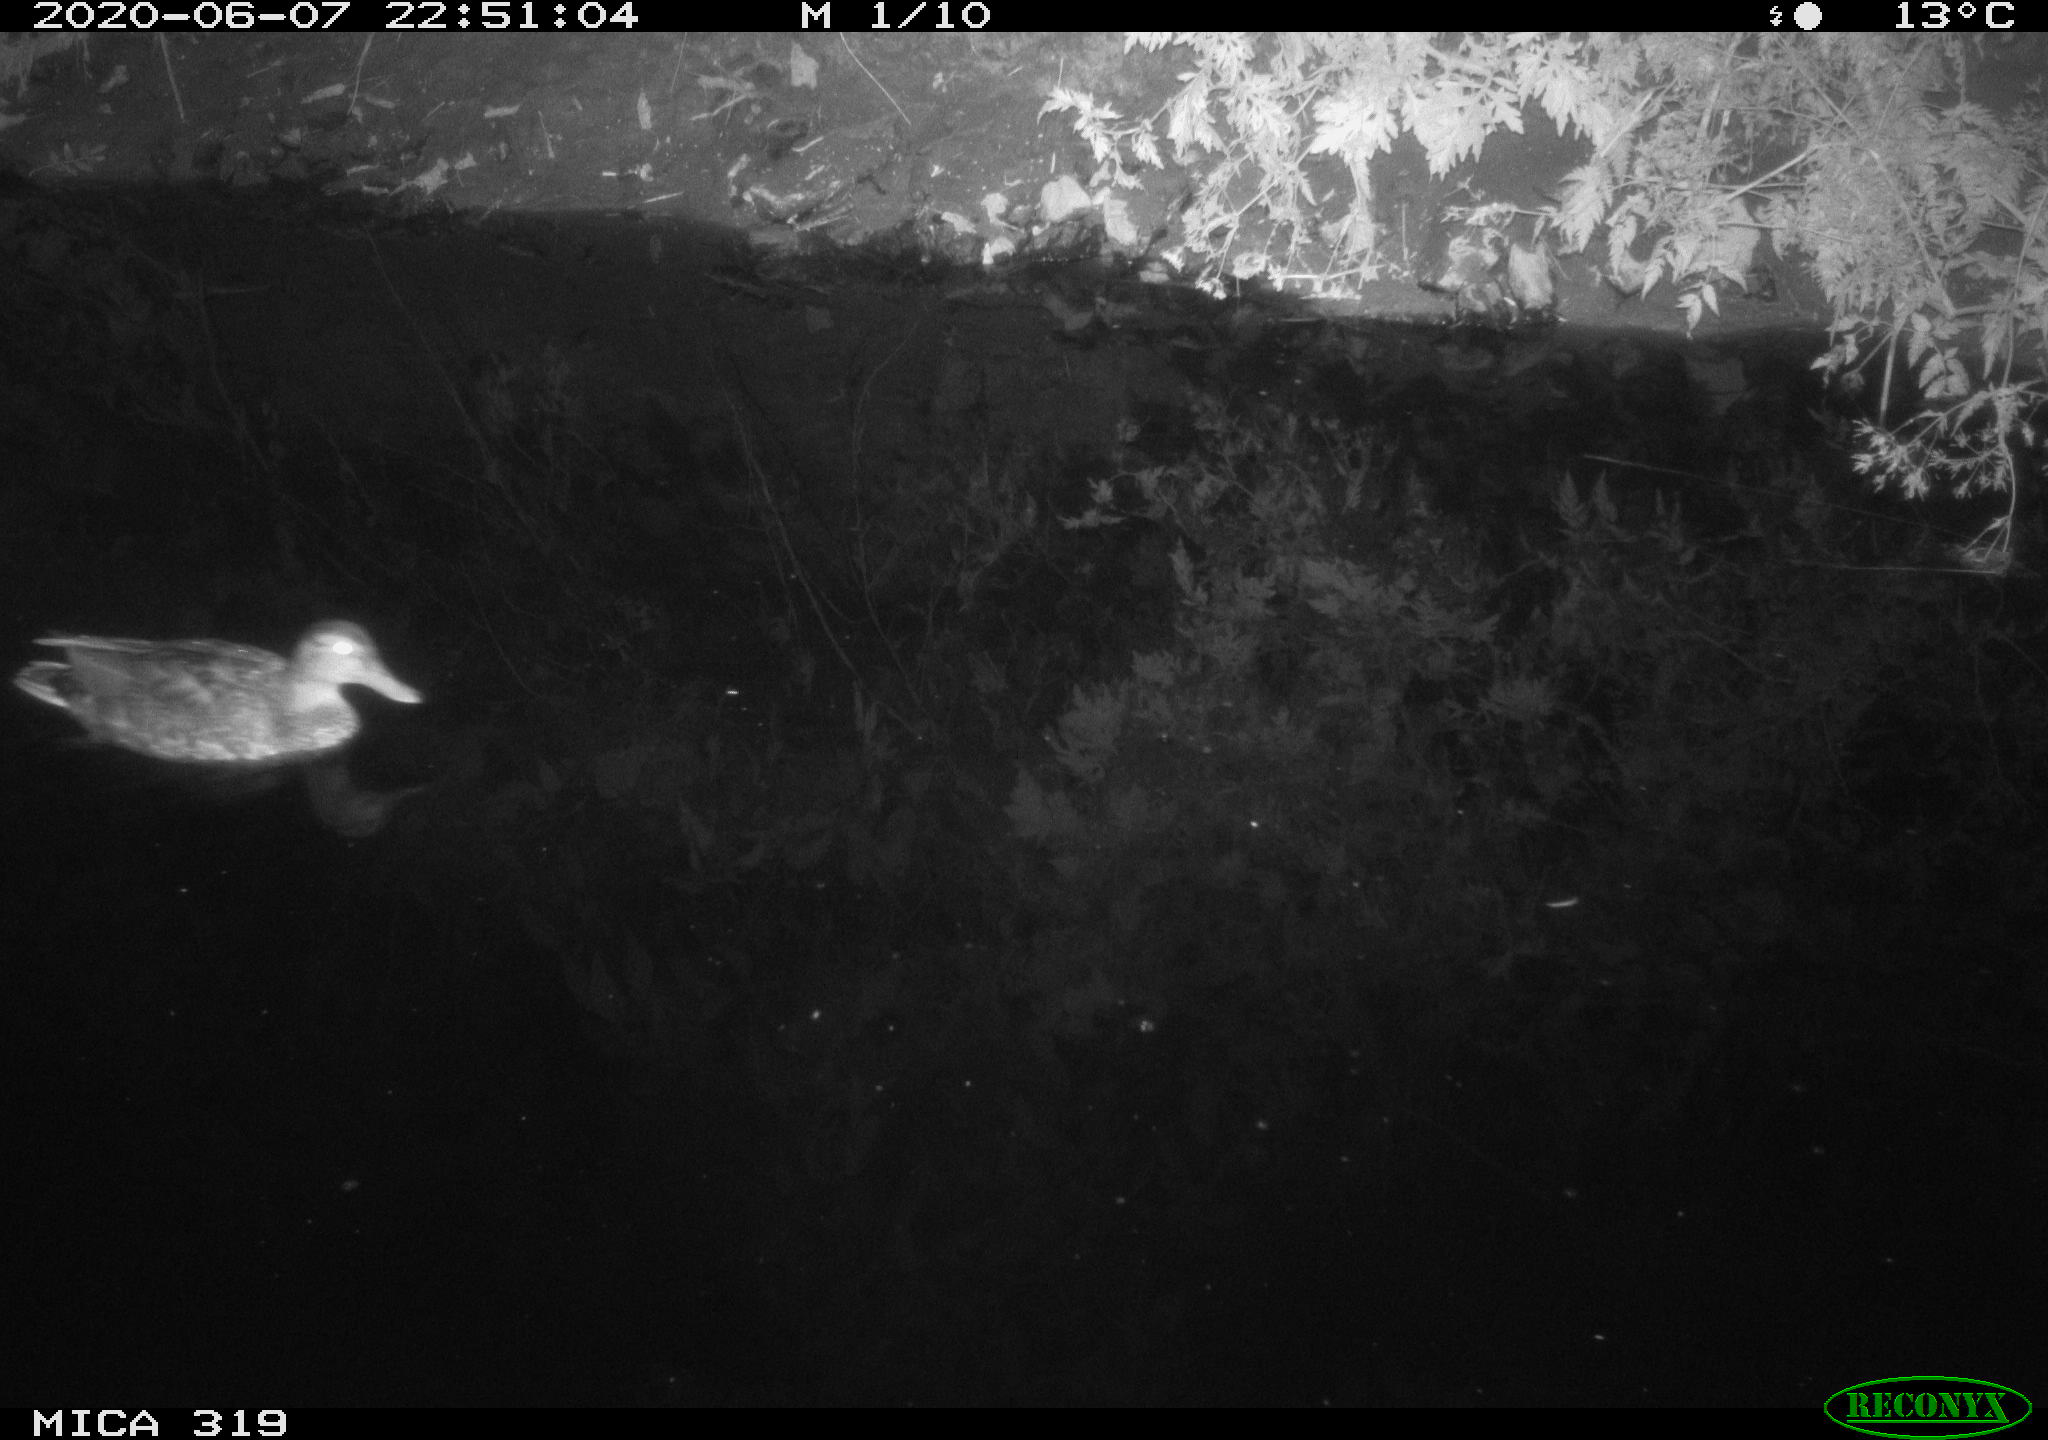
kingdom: Animalia
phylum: Chordata
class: Aves
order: Anseriformes
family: Anatidae
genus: Anas
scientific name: Anas platyrhynchos
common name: Mallard
